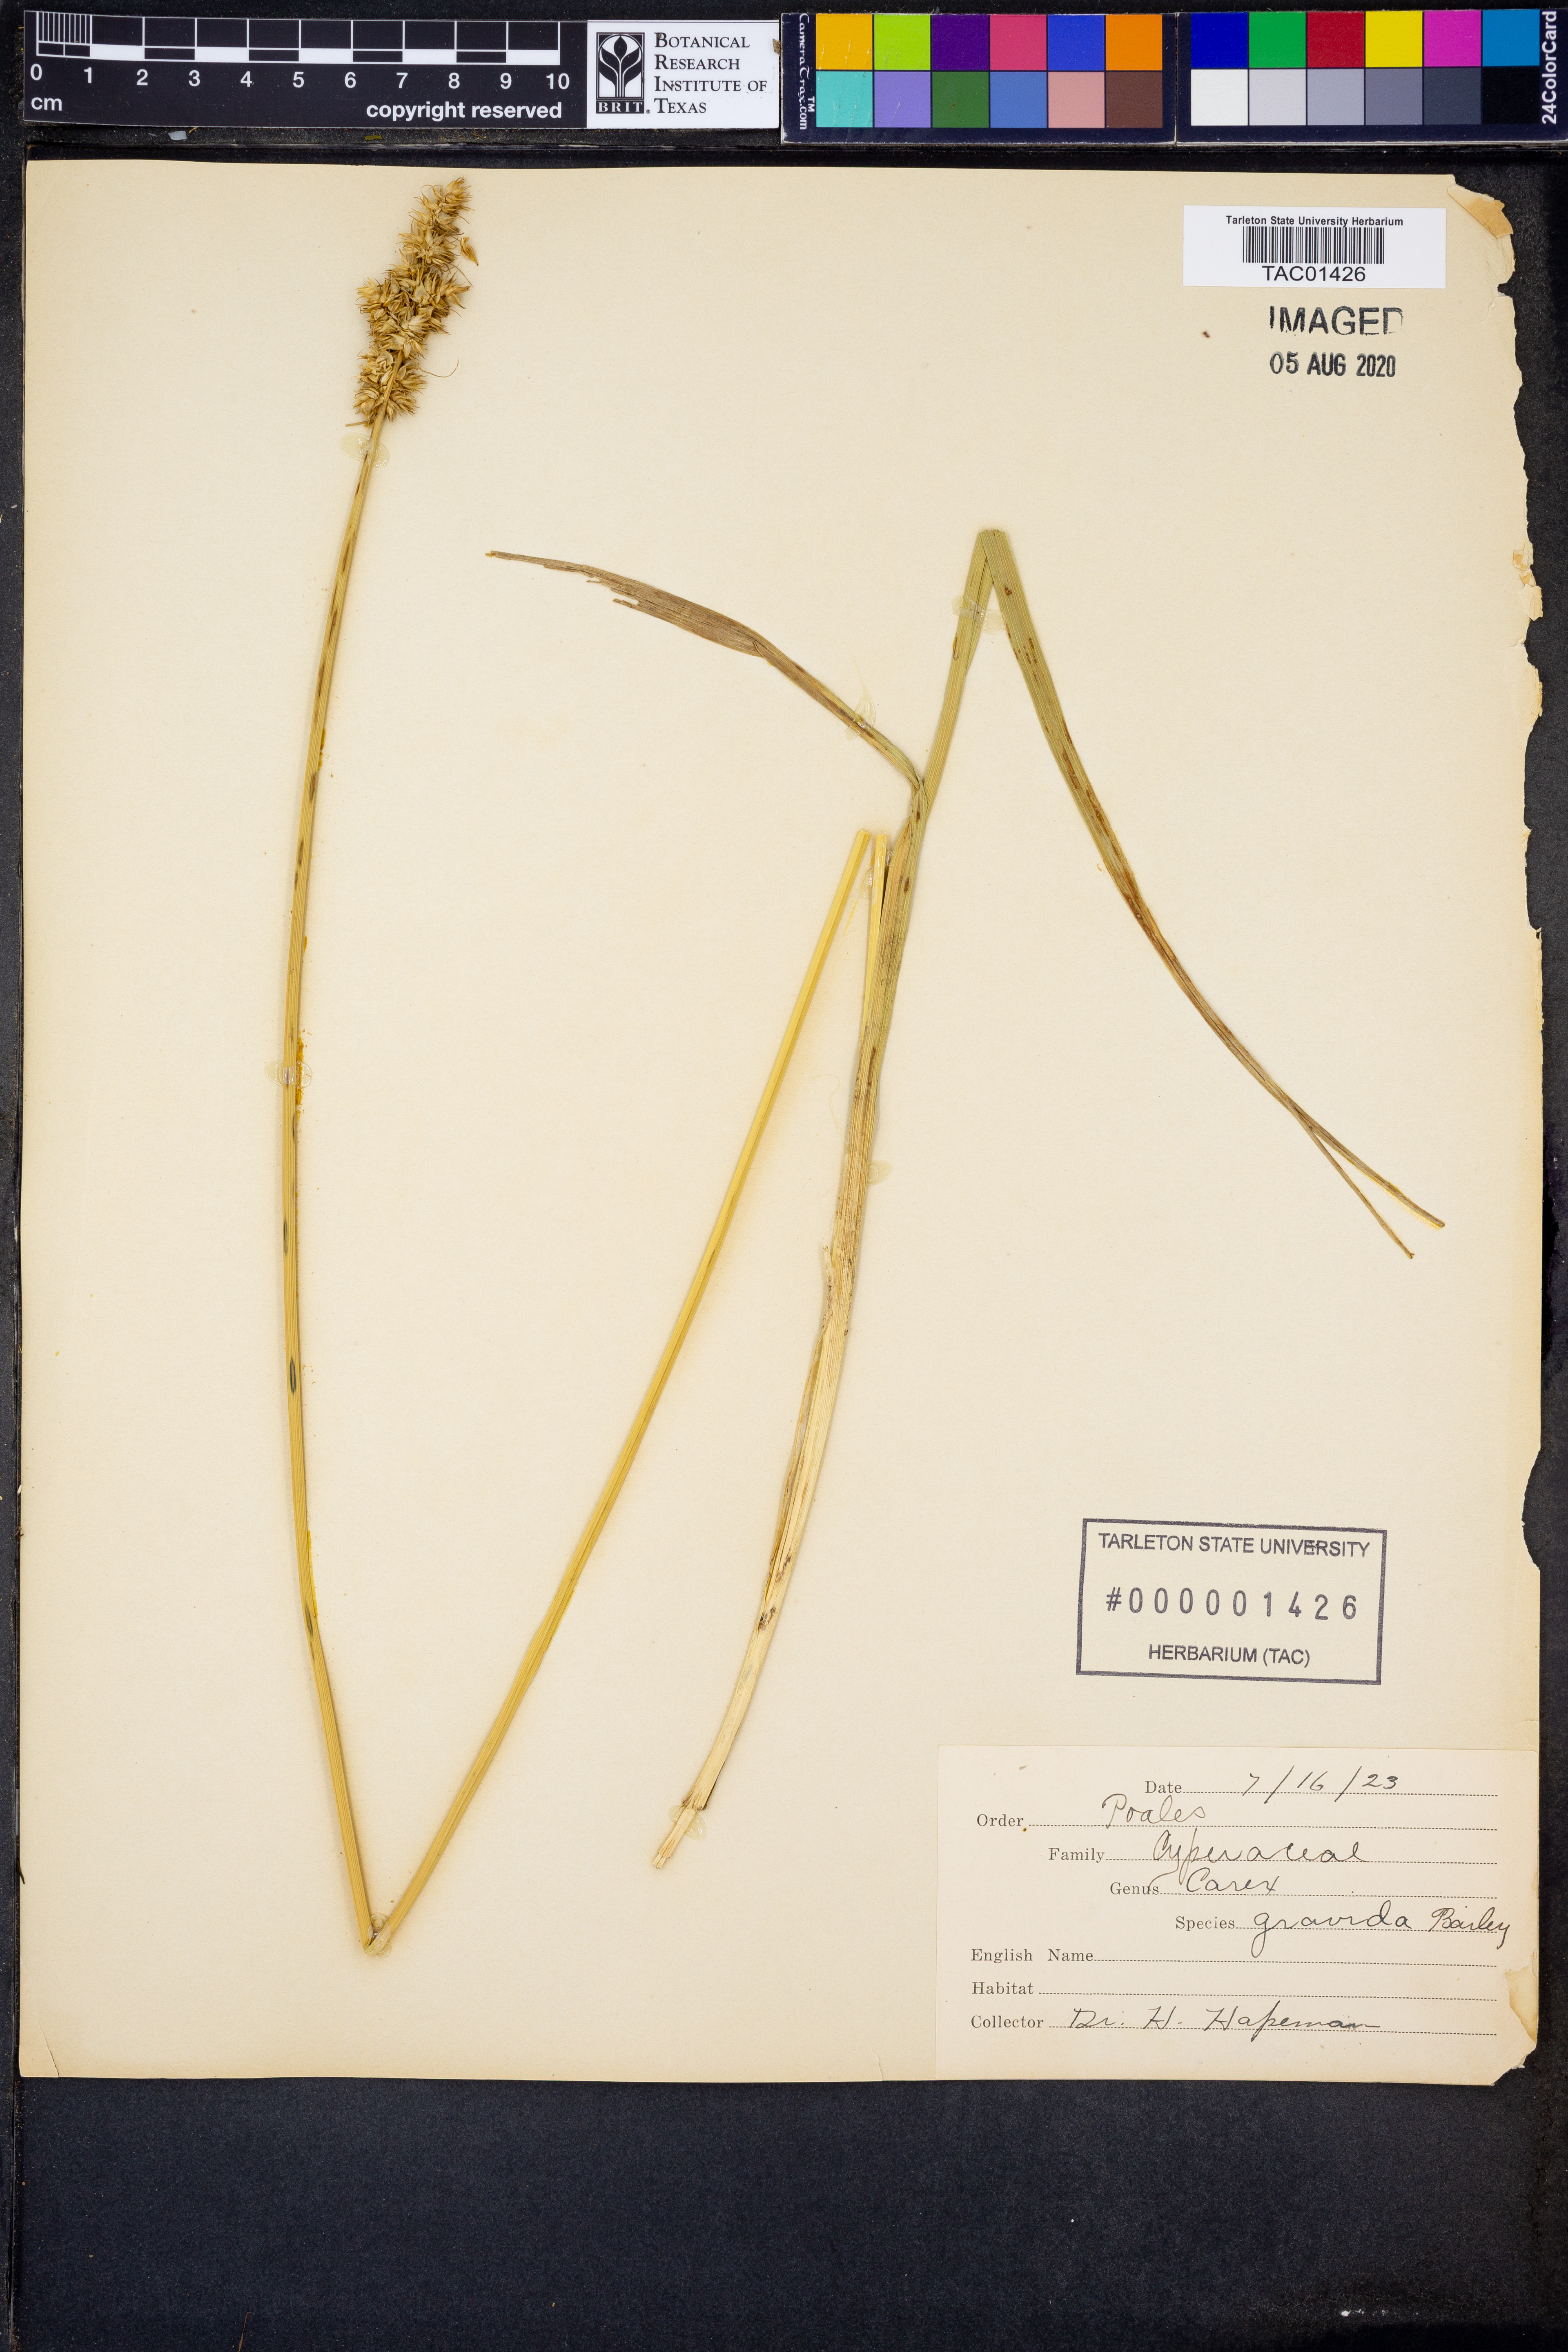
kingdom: Plantae
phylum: Tracheophyta
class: Liliopsida
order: Poales
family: Cyperaceae
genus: Carex
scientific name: Carex gravida
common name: Heavy sedge
